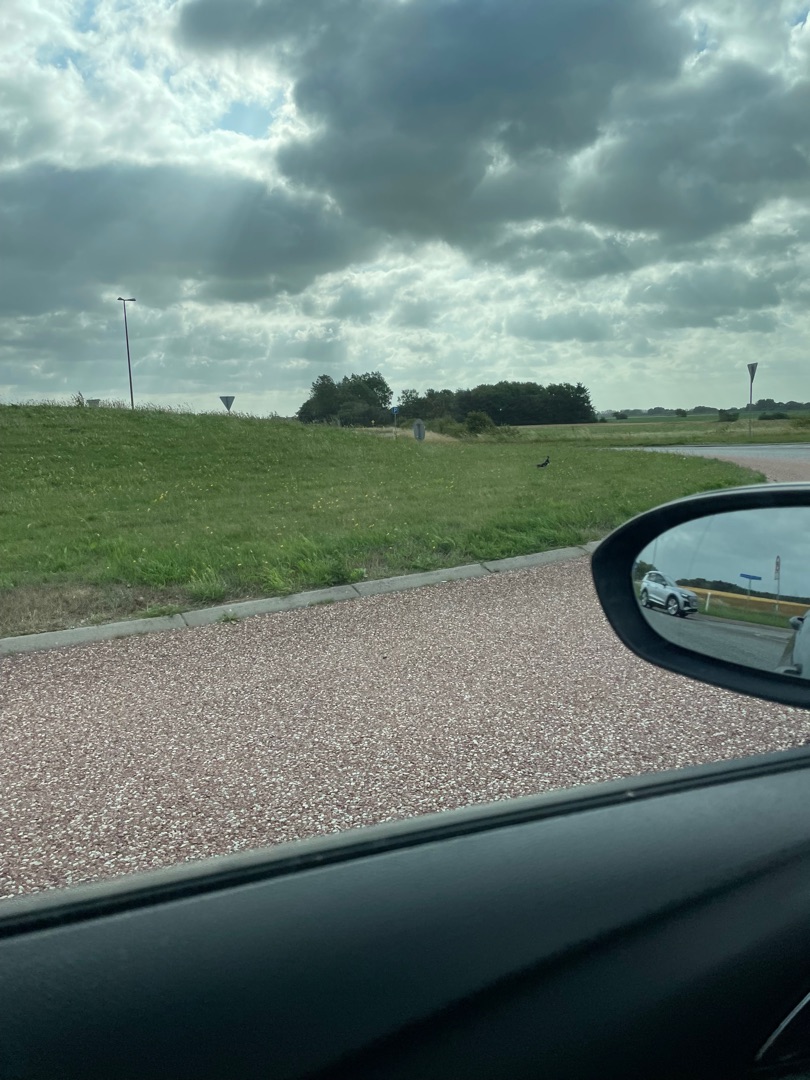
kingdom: Animalia
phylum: Chordata
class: Aves
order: Charadriiformes
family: Charadriidae
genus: Vanellus
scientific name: Vanellus vanellus
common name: Vibe
